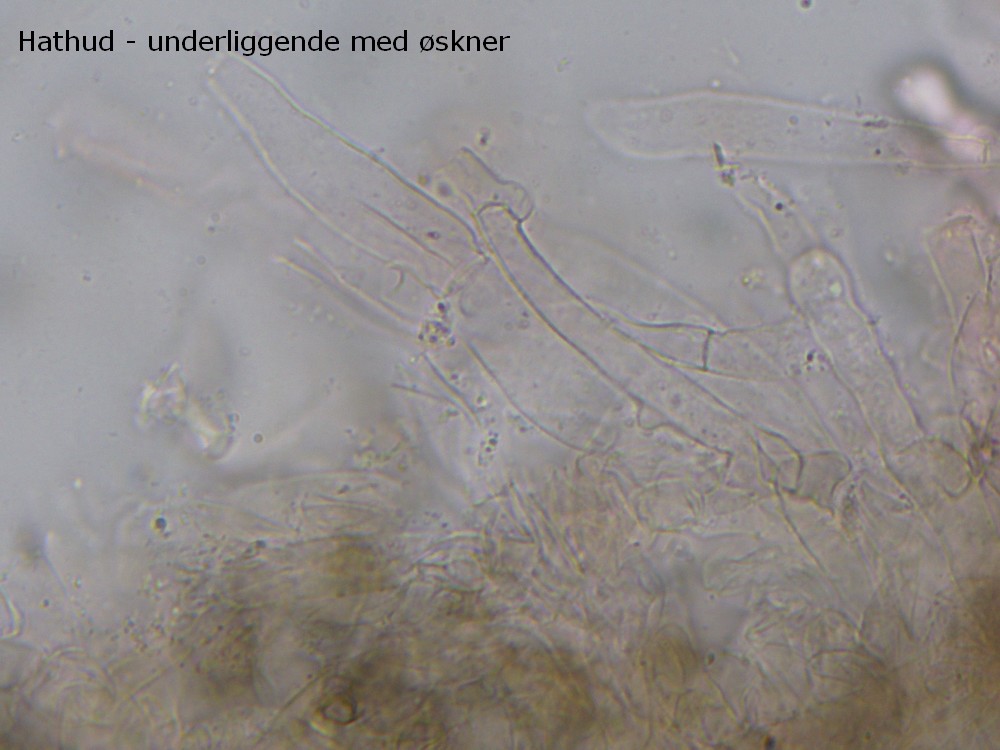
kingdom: Fungi
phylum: Basidiomycota
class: Agaricomycetes
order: Agaricales
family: Tricholomataceae
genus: Dermoloma
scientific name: Dermoloma cuneifolium
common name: eng-nonnehat
